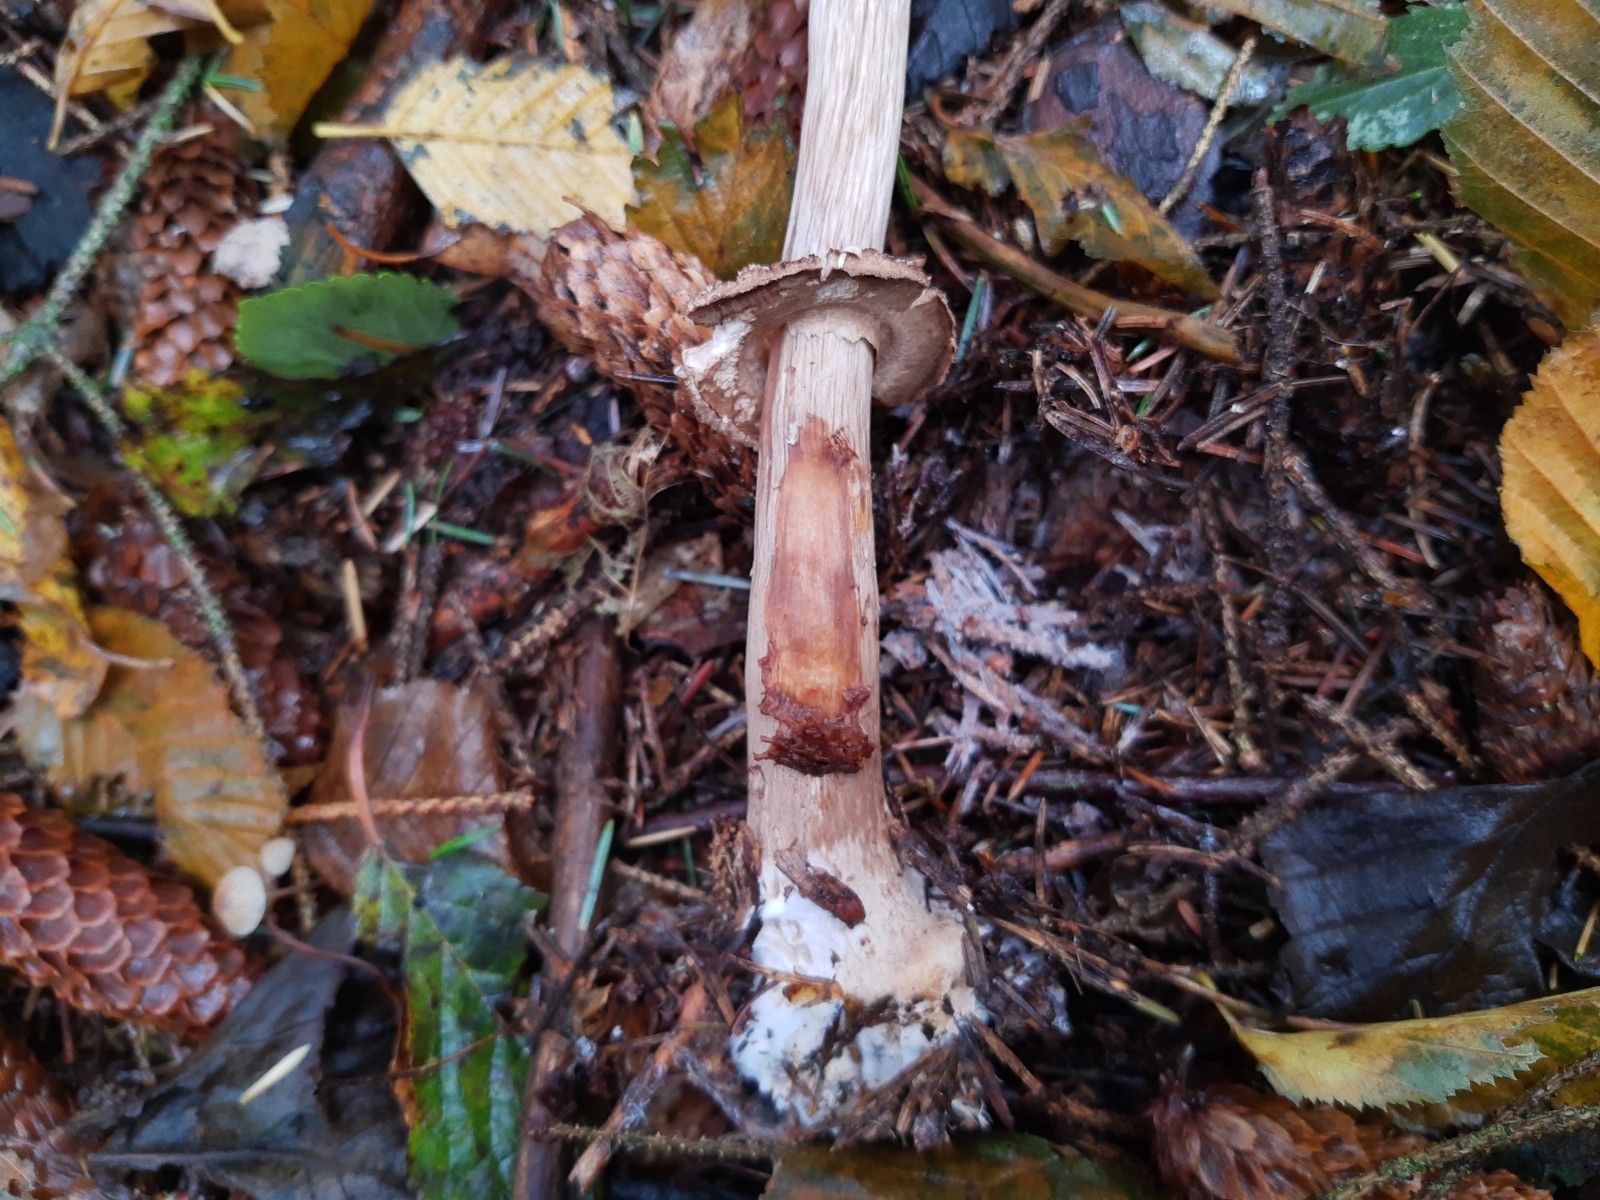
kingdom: Fungi
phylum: Basidiomycota
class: Agaricomycetes
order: Agaricales
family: Agaricaceae
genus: Chlorophyllum
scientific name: Chlorophyllum olivieri
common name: almindelig rabarberhat
